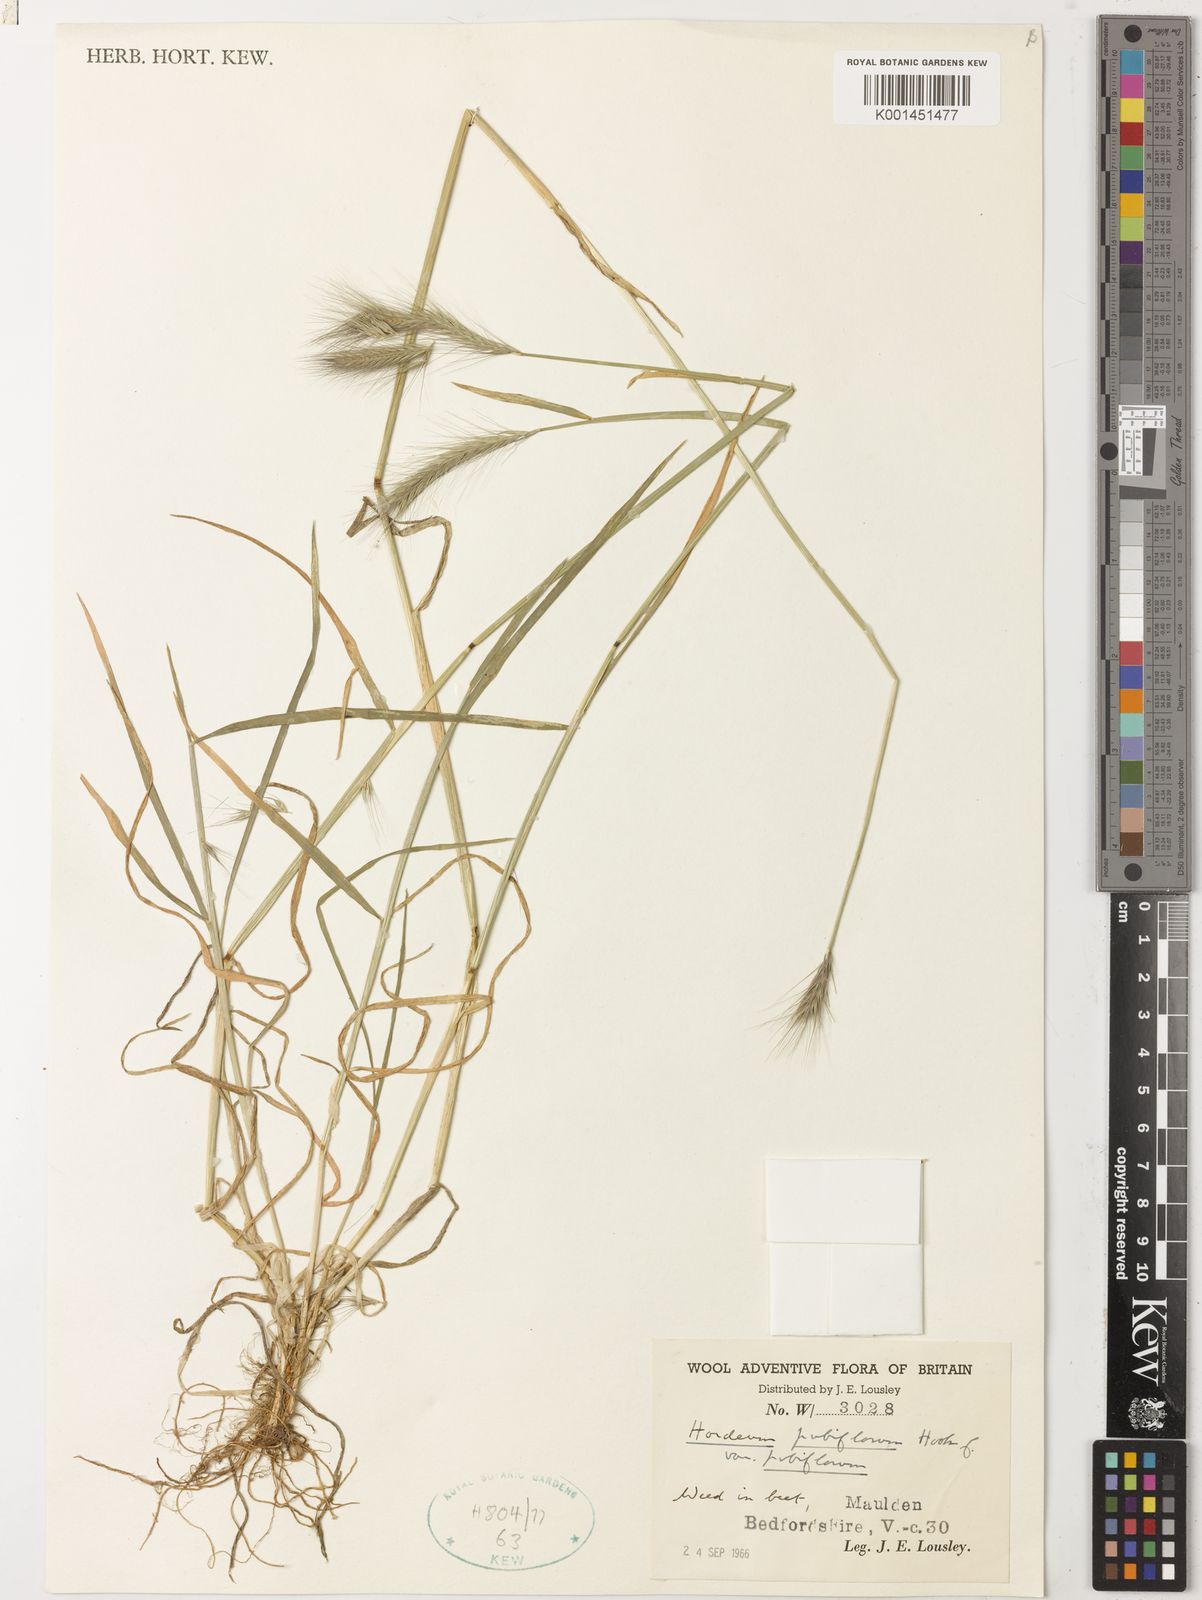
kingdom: Plantae
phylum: Tracheophyta
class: Liliopsida
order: Poales
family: Poaceae
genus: Hordeum
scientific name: Hordeum pubiflorum
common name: Antarctic barley
